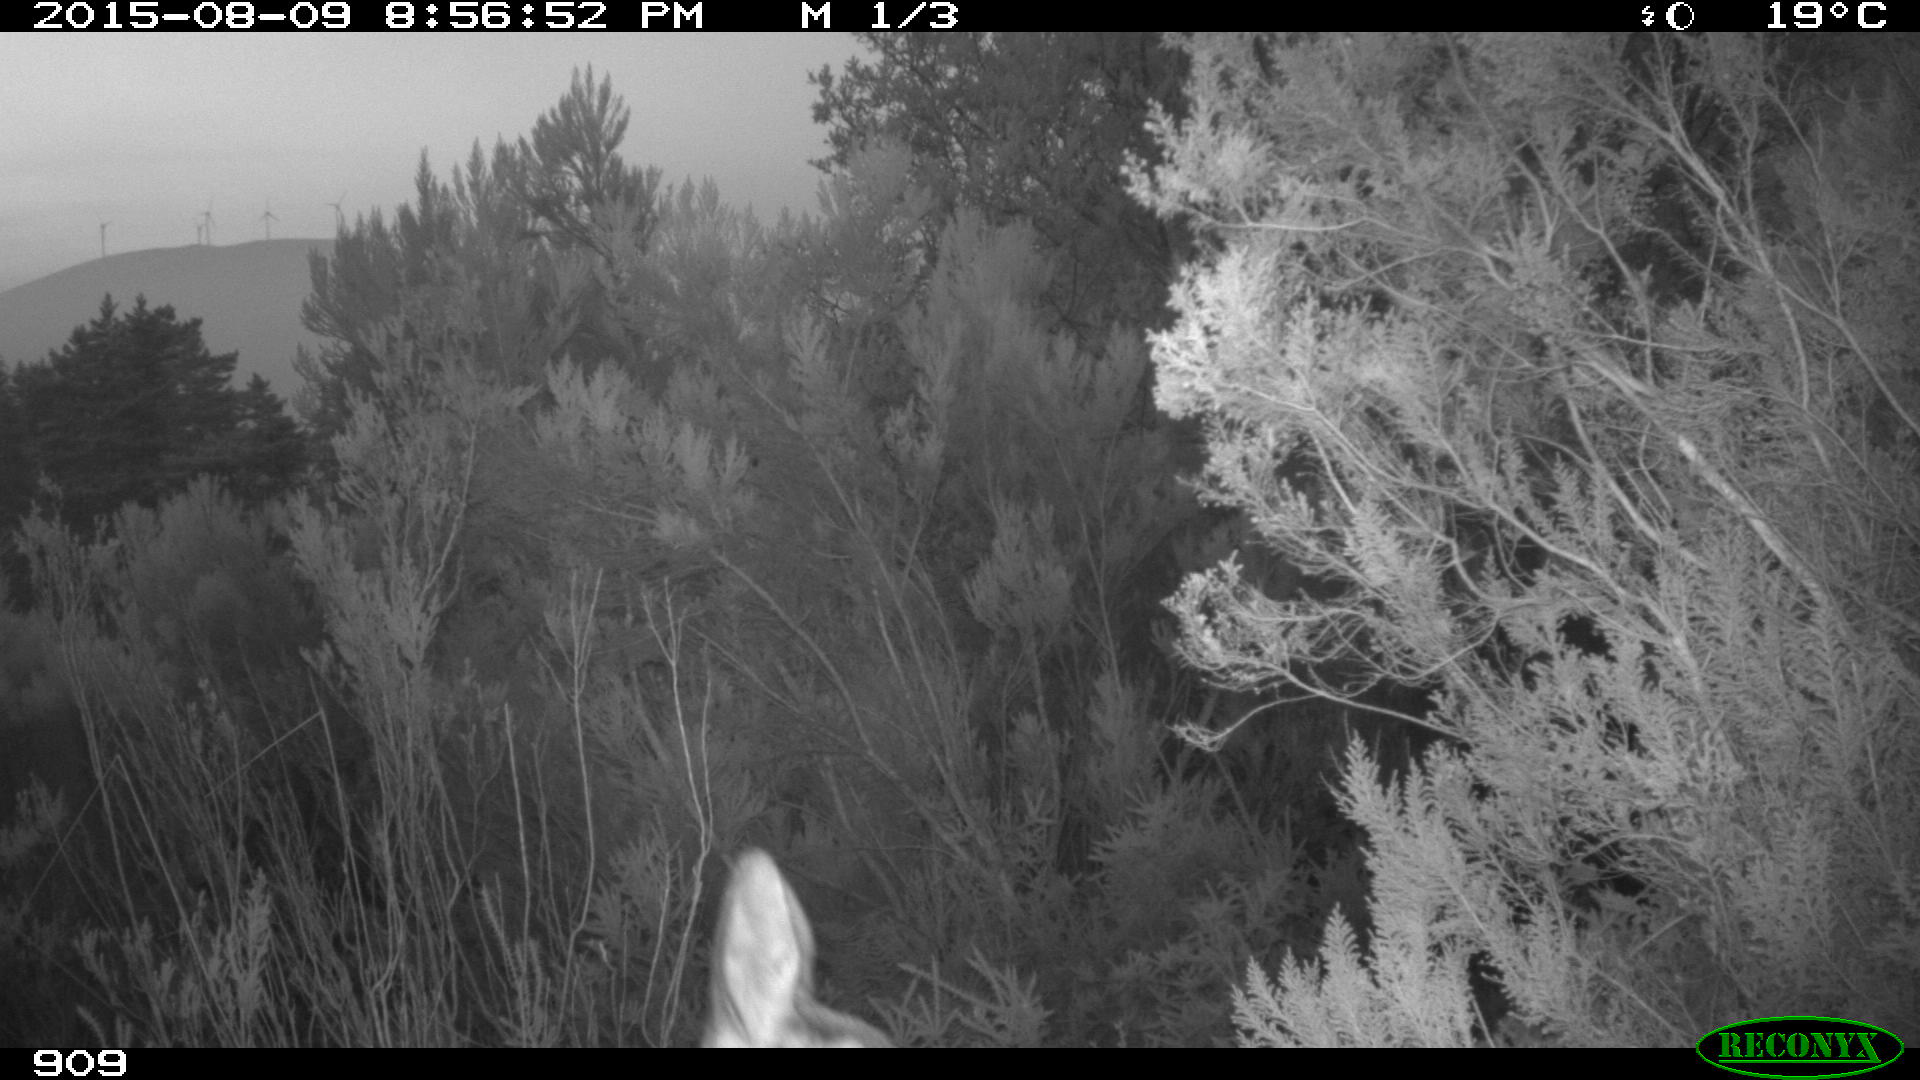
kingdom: Animalia
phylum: Chordata
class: Mammalia
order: Artiodactyla
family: Cervidae
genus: Capreolus
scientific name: Capreolus capreolus
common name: Western roe deer
